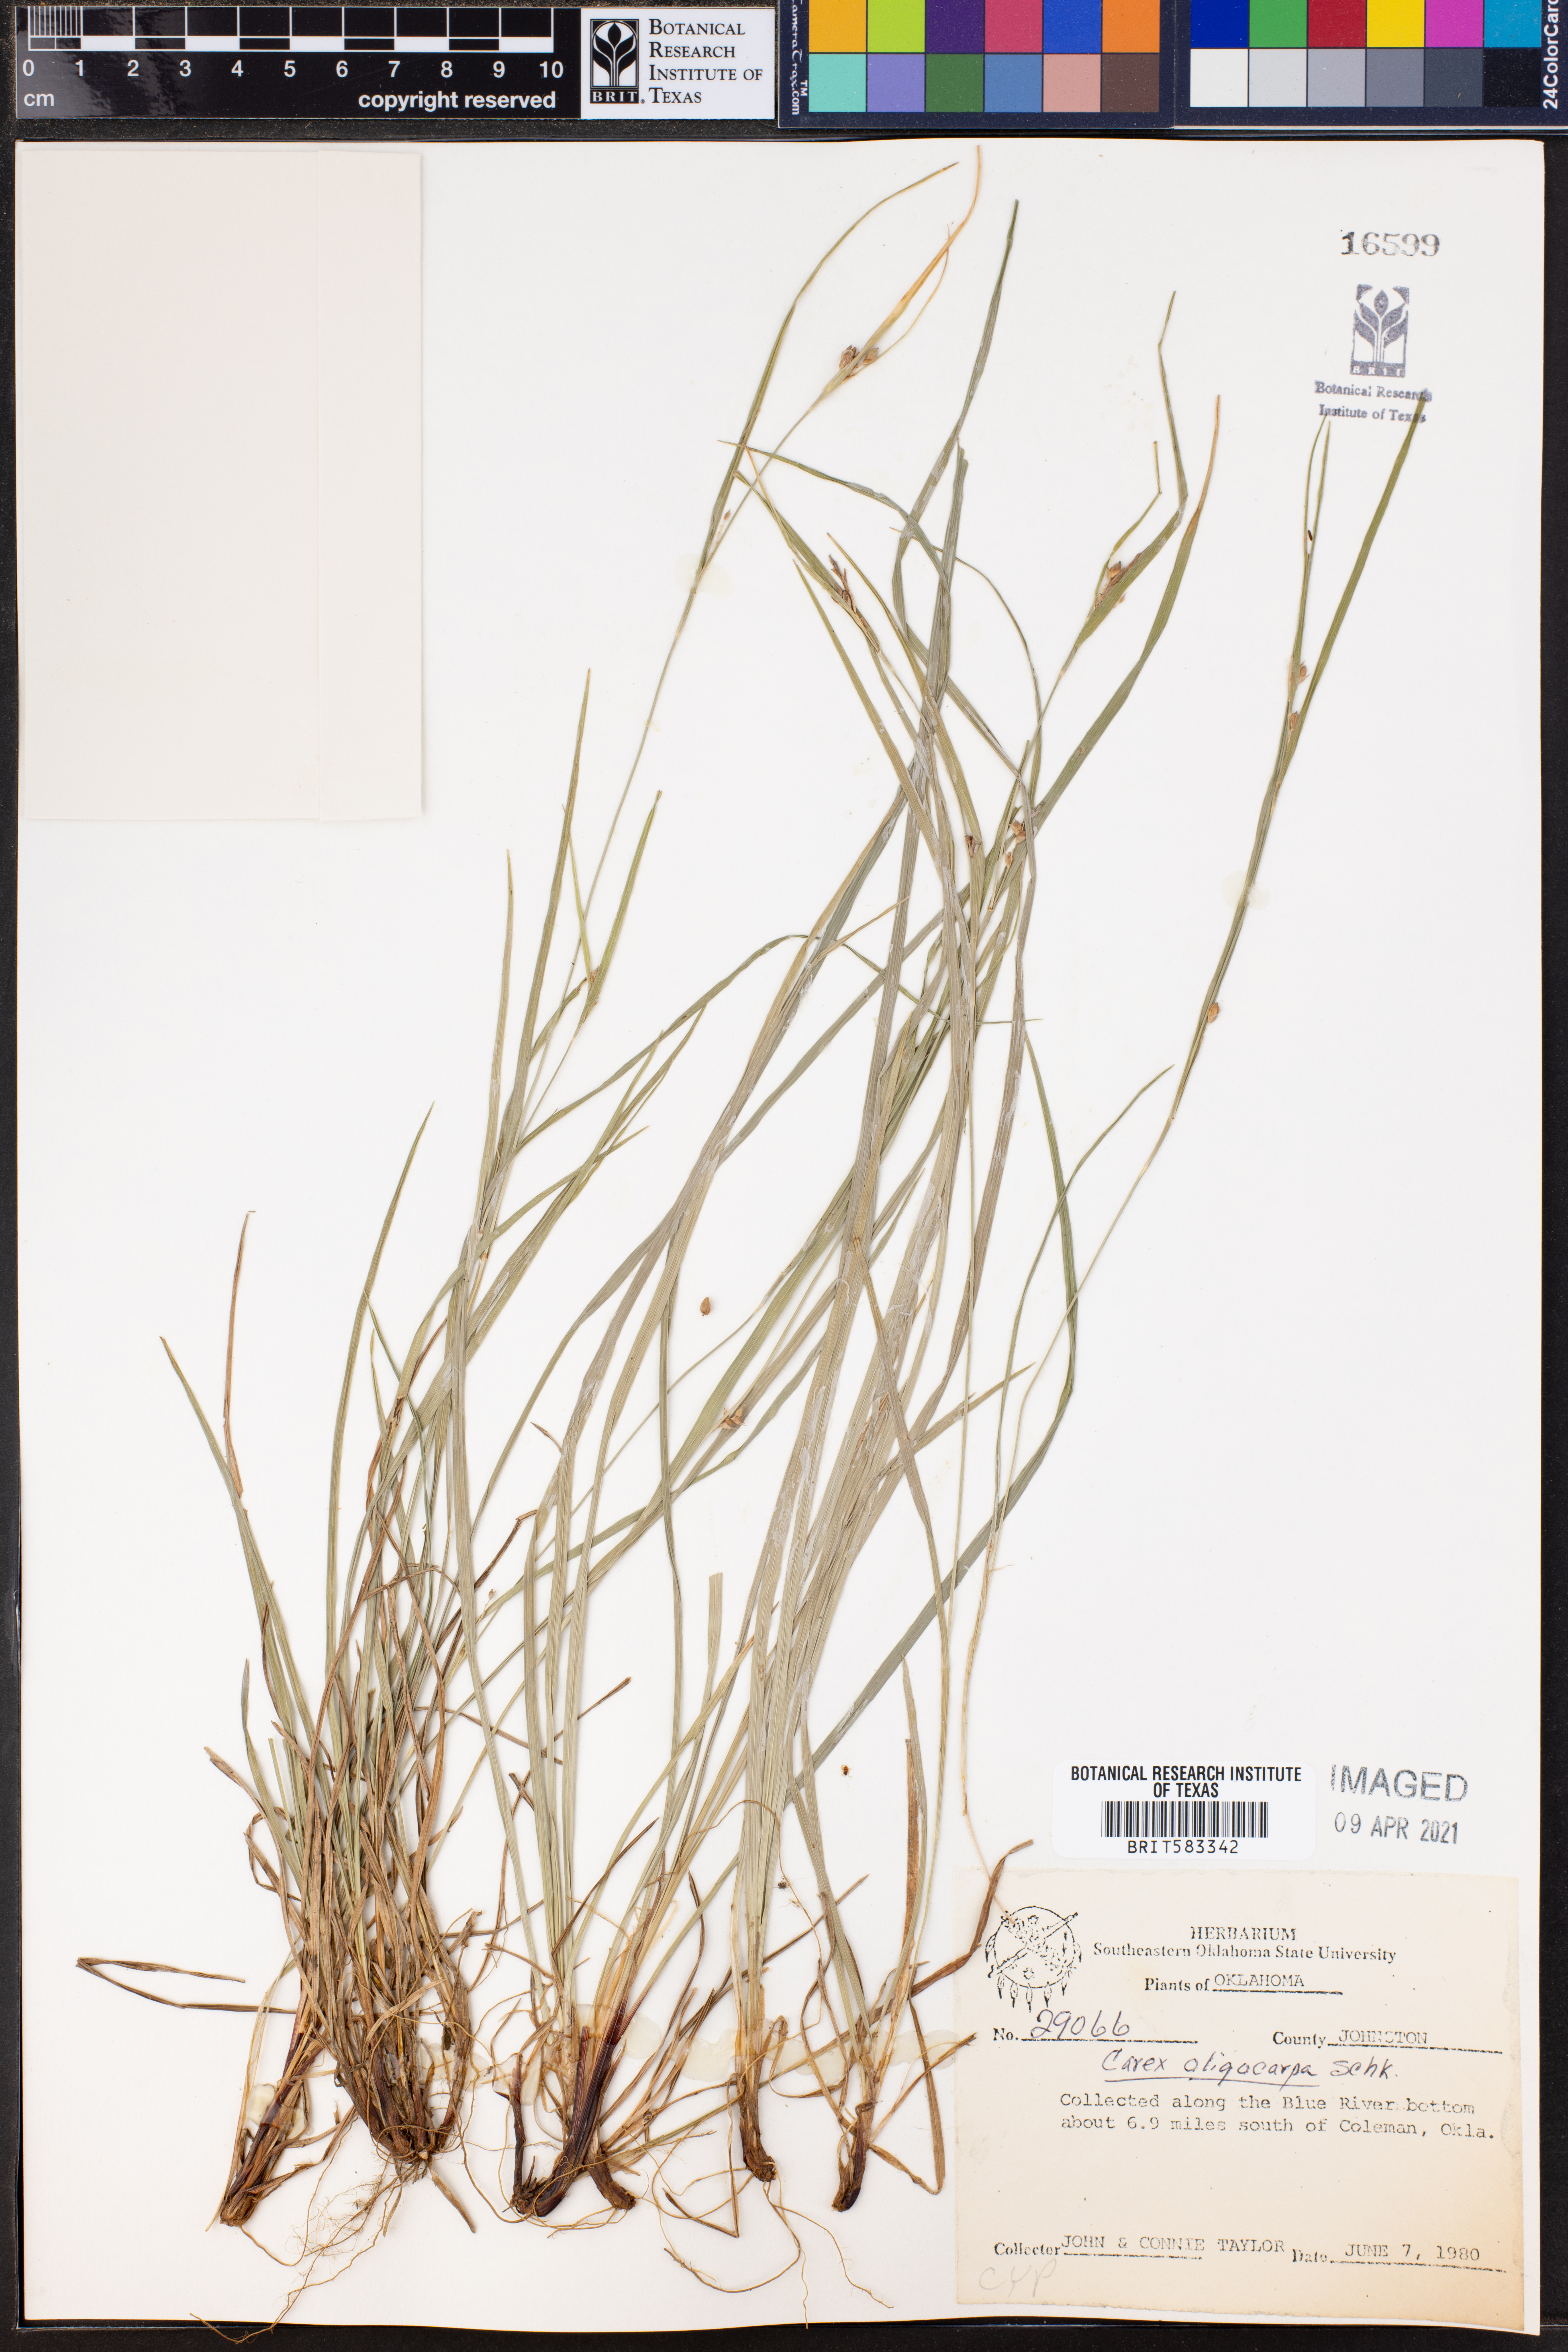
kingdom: Plantae
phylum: Tracheophyta
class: Liliopsida
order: Poales
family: Cyperaceae
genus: Carex
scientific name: Carex oligocarpa
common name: Eastern few-fruited sedge
